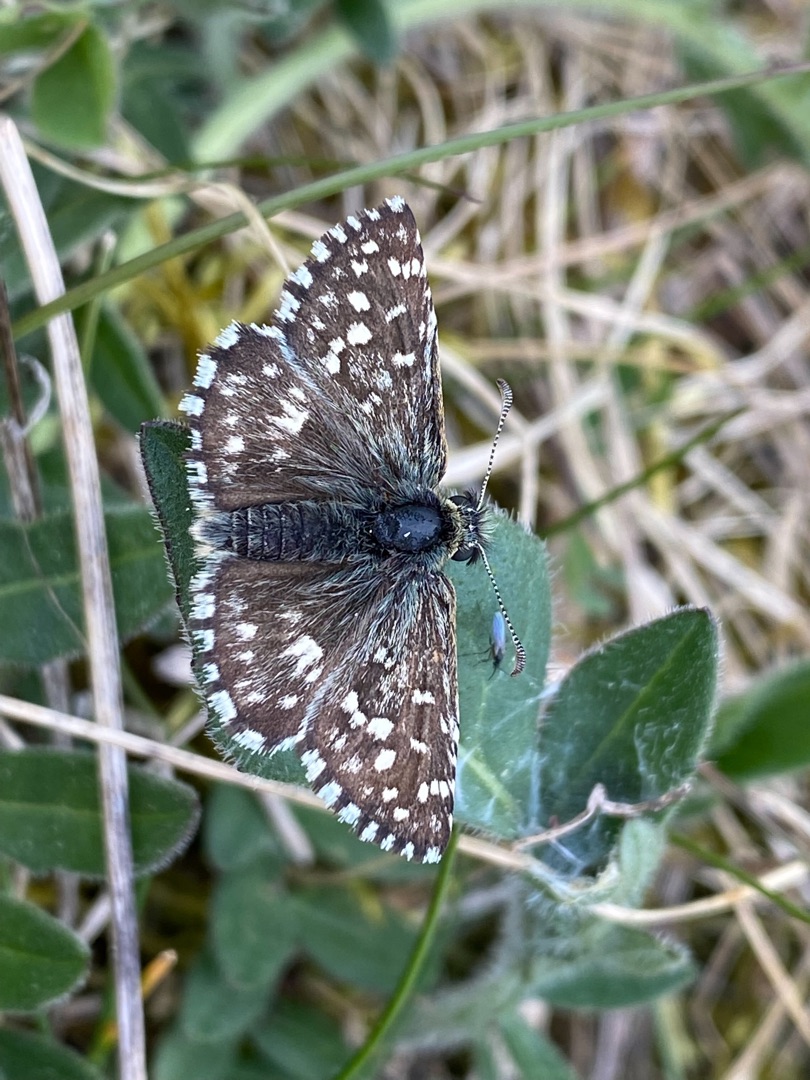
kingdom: Animalia
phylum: Arthropoda
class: Insecta
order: Lepidoptera
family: Hesperiidae
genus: Pyrgus
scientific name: Pyrgus malvae
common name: Spættet bredpande
